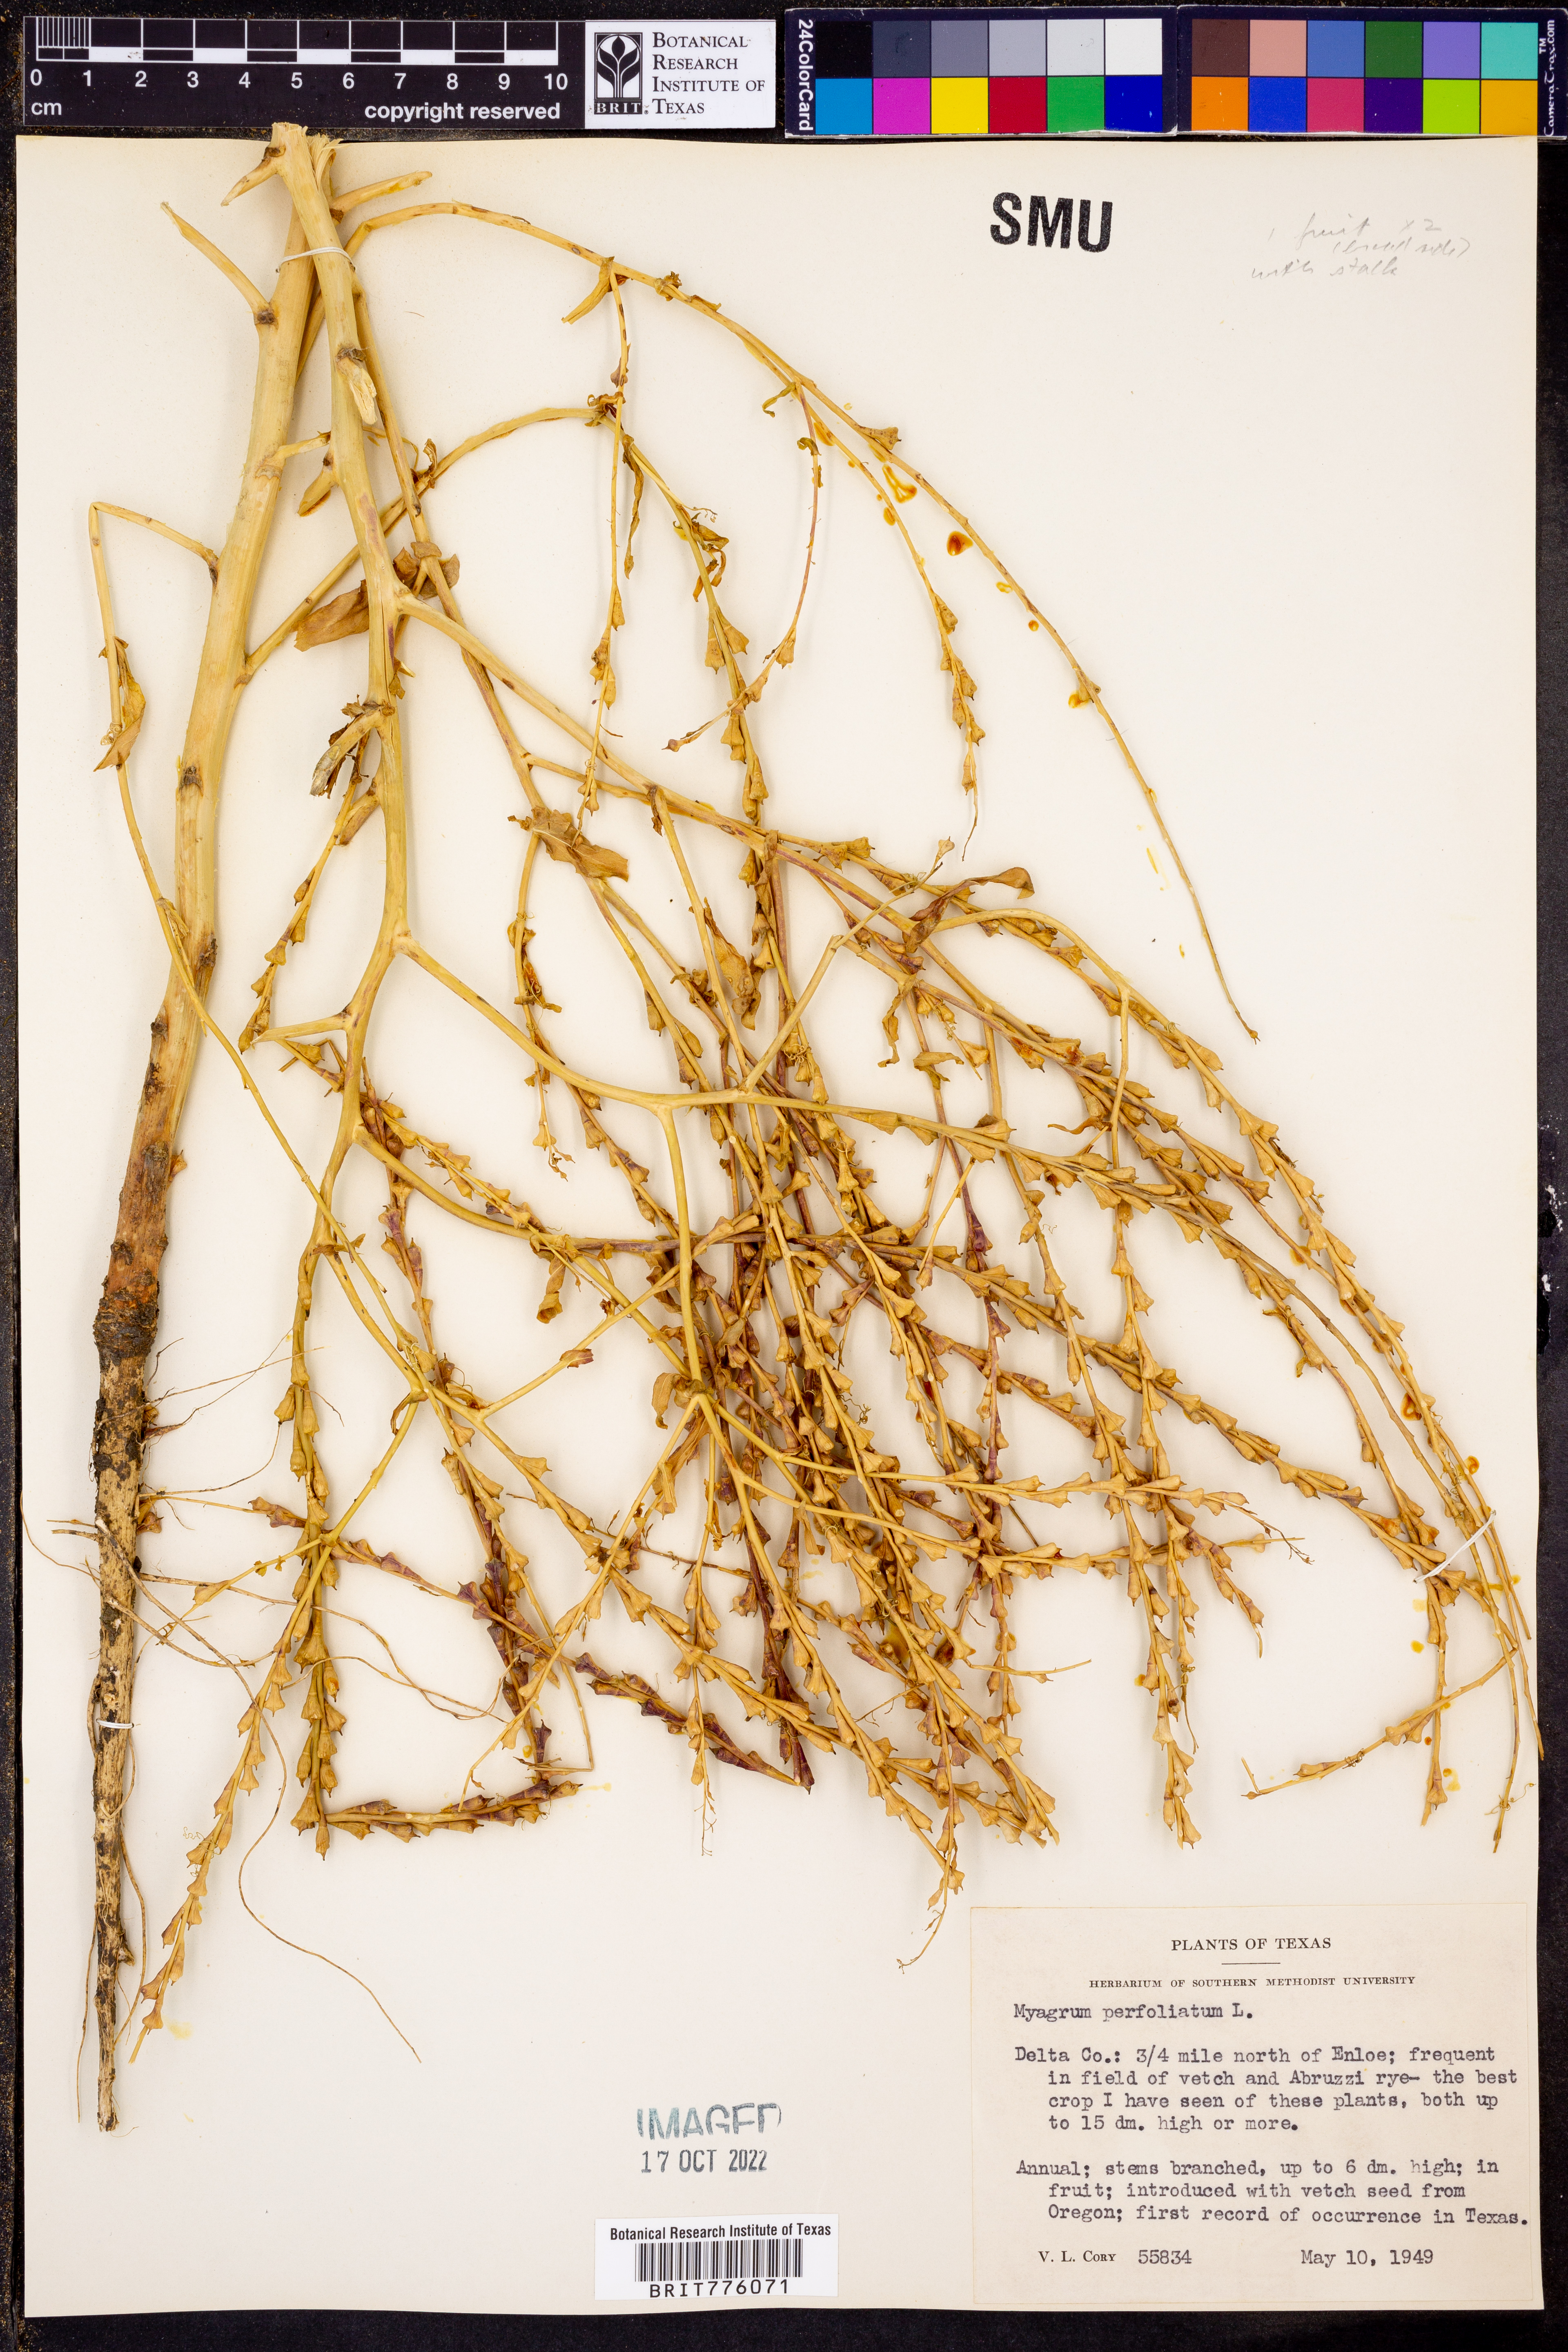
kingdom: Plantae
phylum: Tracheophyta
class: Magnoliopsida
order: Brassicales
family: Brassicaceae
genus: Myagrum
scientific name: Myagrum perfoliatum
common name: Mitre cress
